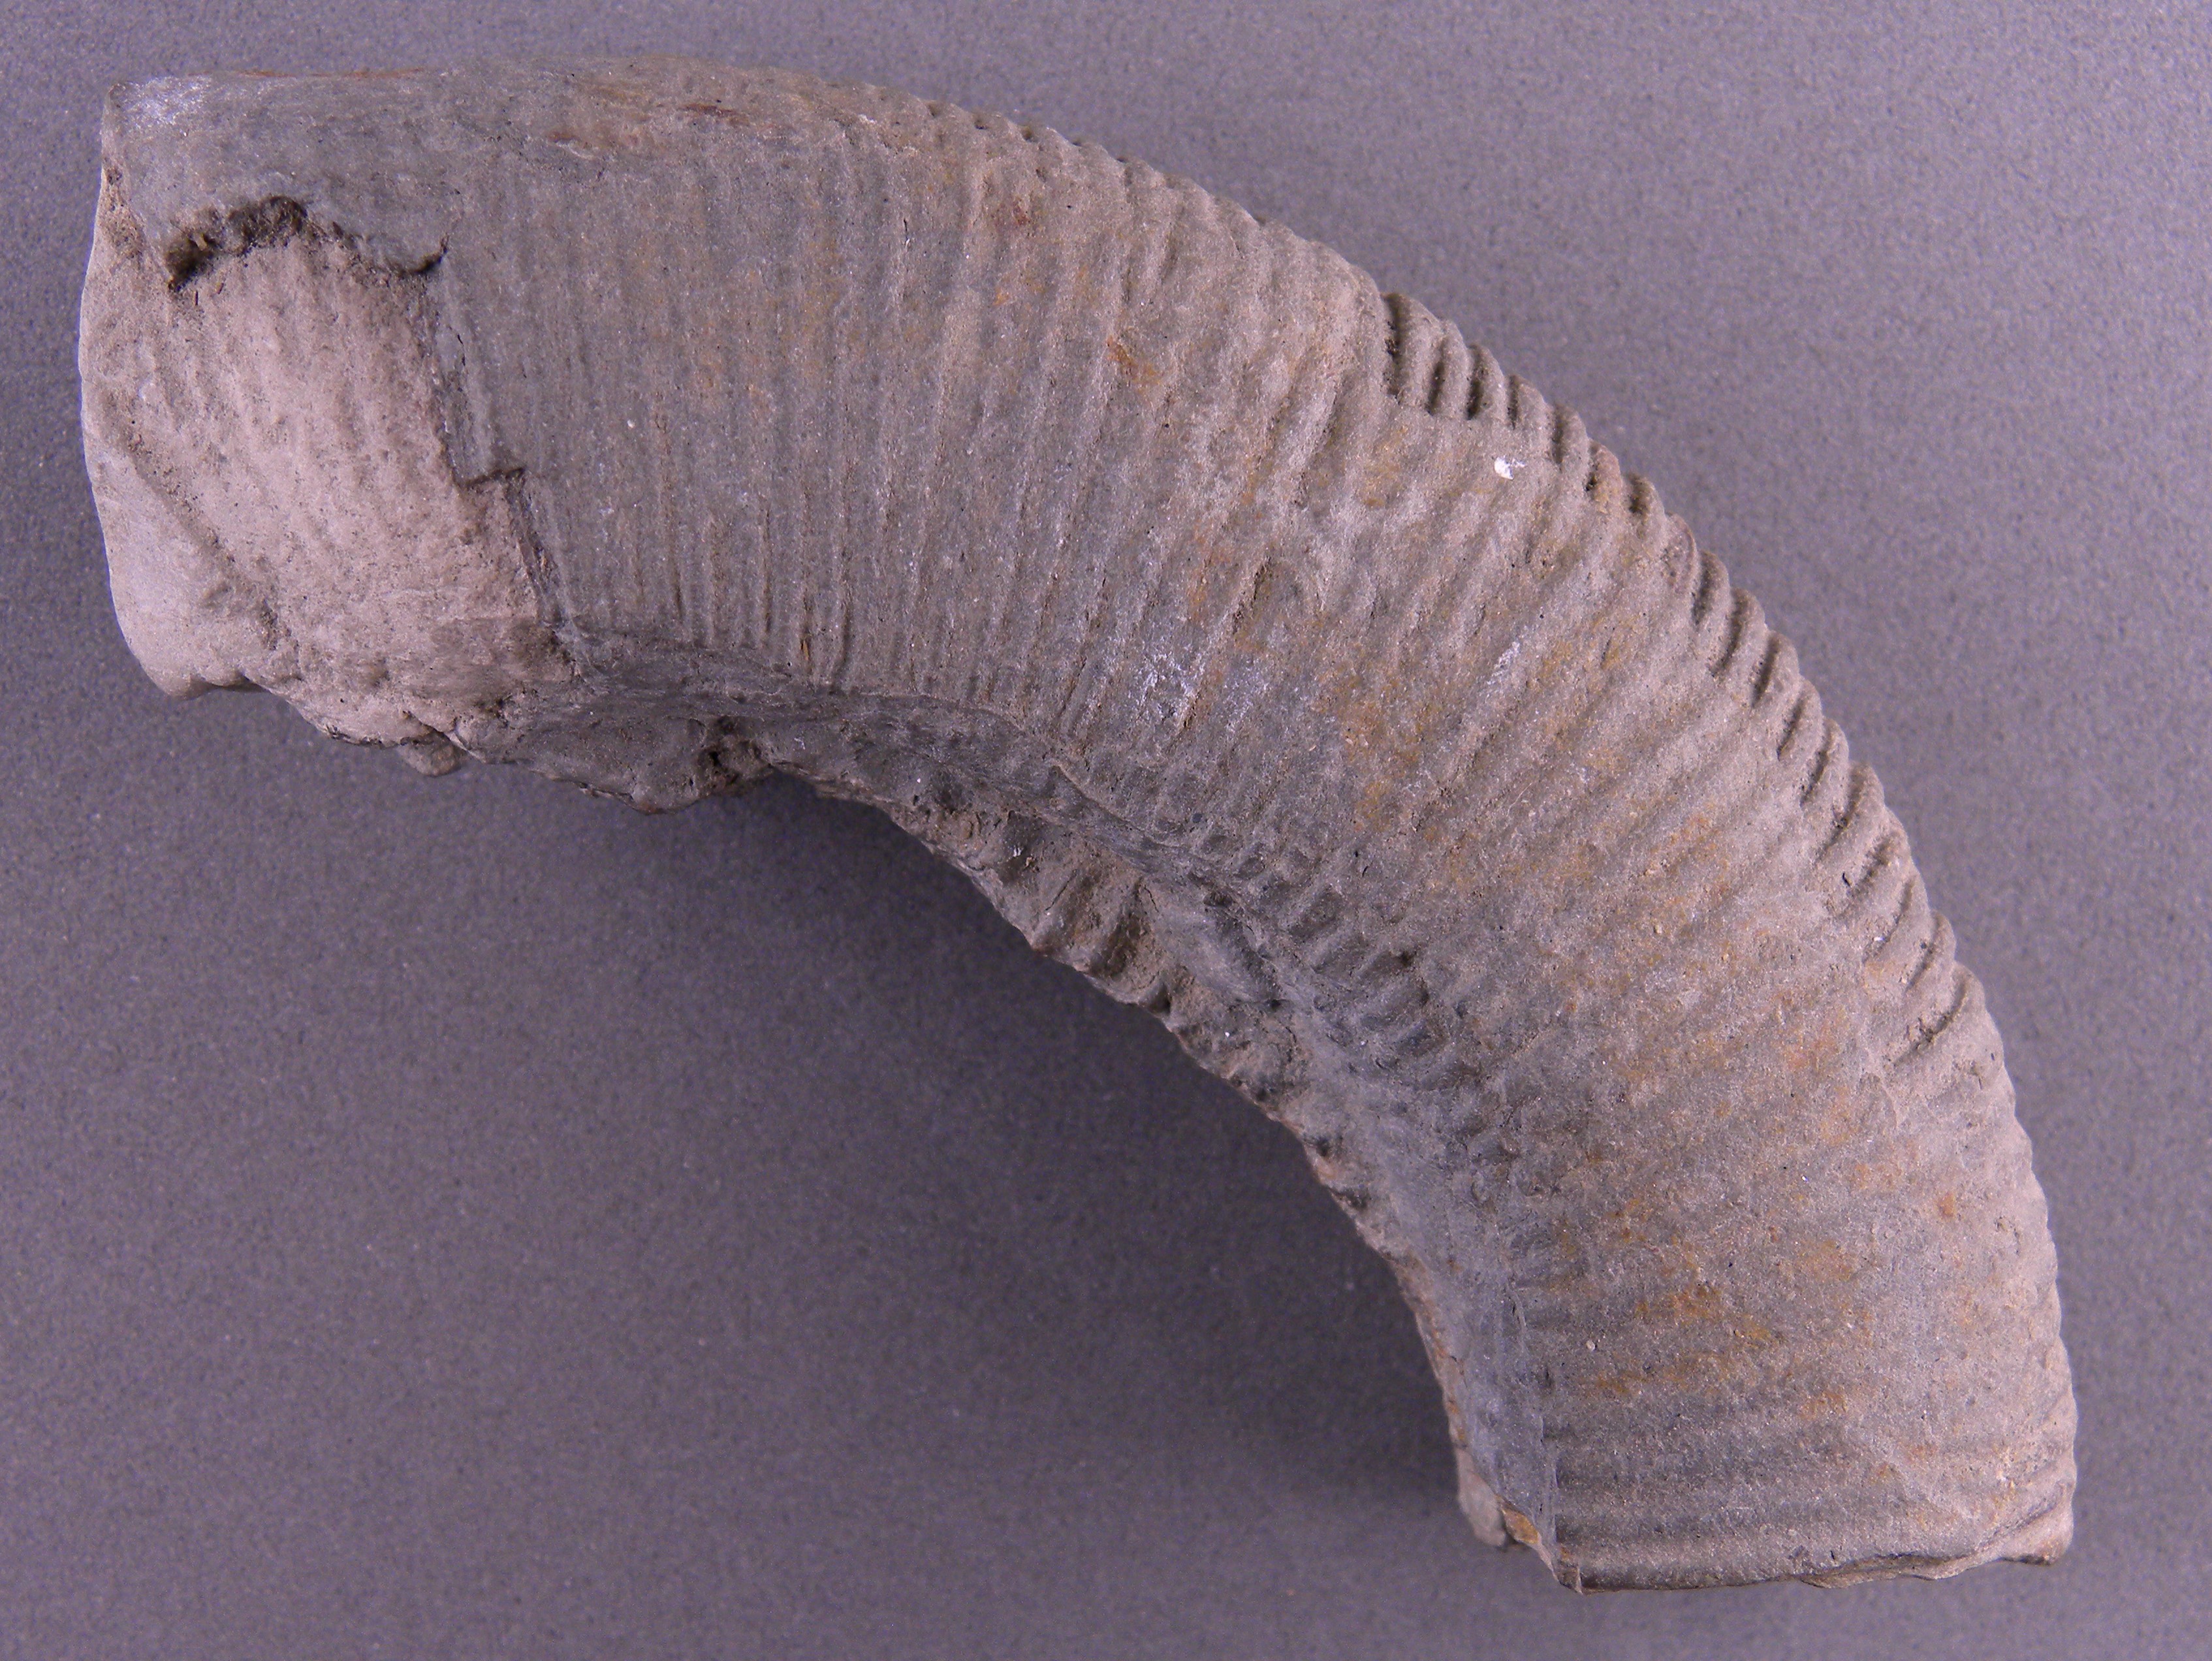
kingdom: Animalia
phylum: Mollusca
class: Cephalopoda
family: Dactylioceratidae
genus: Dactylioceras
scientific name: Dactylioceras
